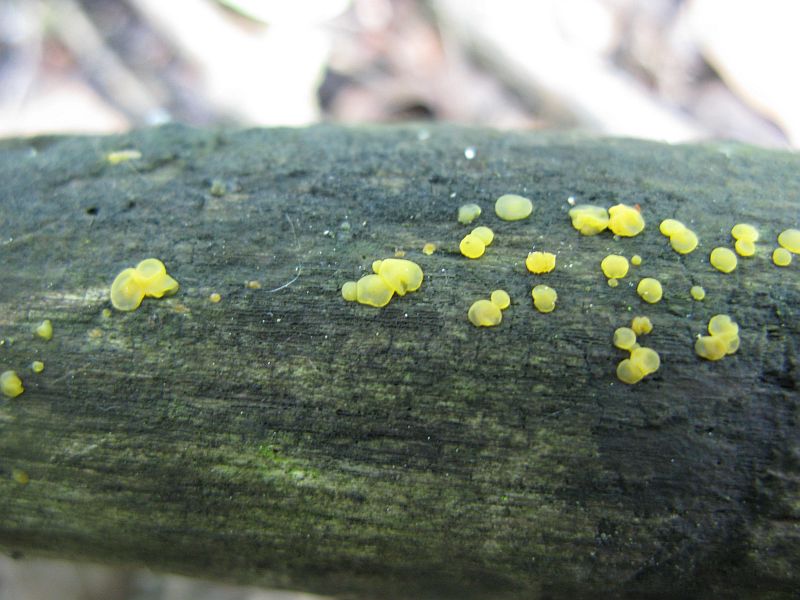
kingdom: Fungi
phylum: Basidiomycota
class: Dacrymycetes
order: Dacrymycetales
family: Dacrymycetaceae
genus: Dacrymyces
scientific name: Dacrymyces lacrymalis
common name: rynket tåresvamp
